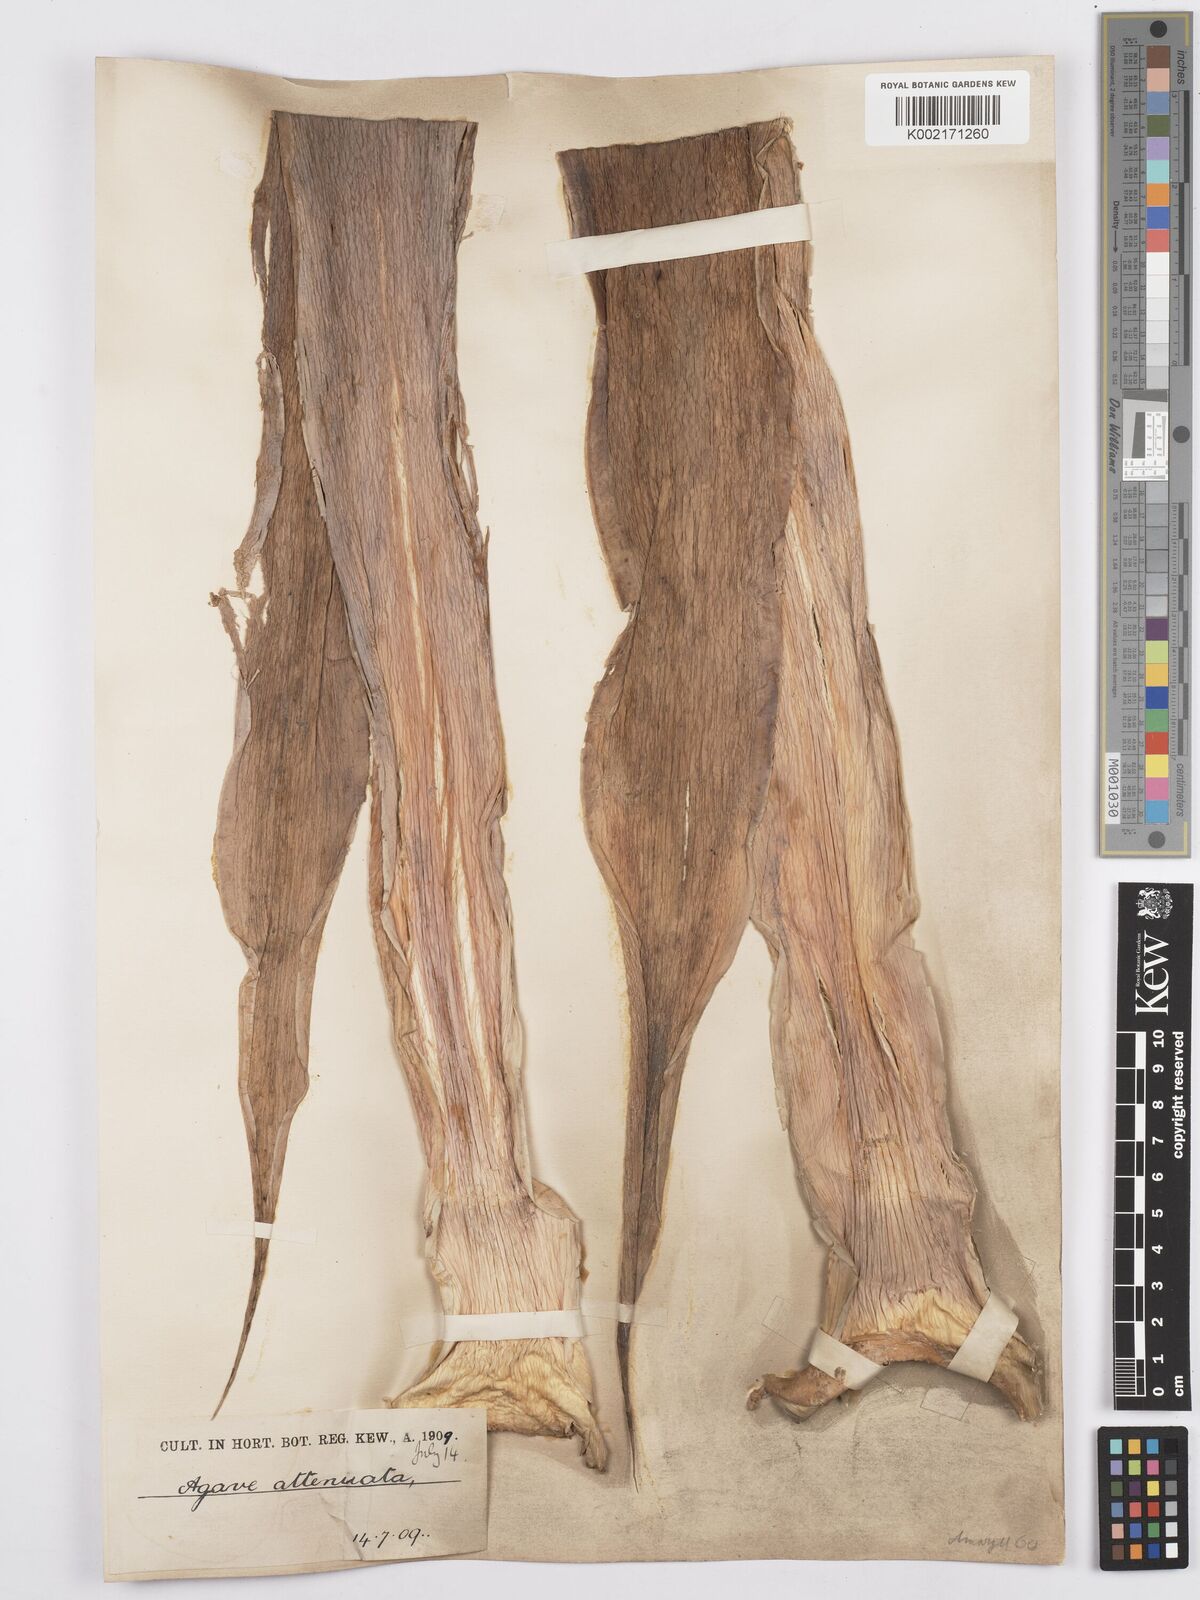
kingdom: Plantae
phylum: Tracheophyta
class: Liliopsida
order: Asparagales
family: Asparagaceae
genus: Agave
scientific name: Agave attenuata
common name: Fox tail agave
